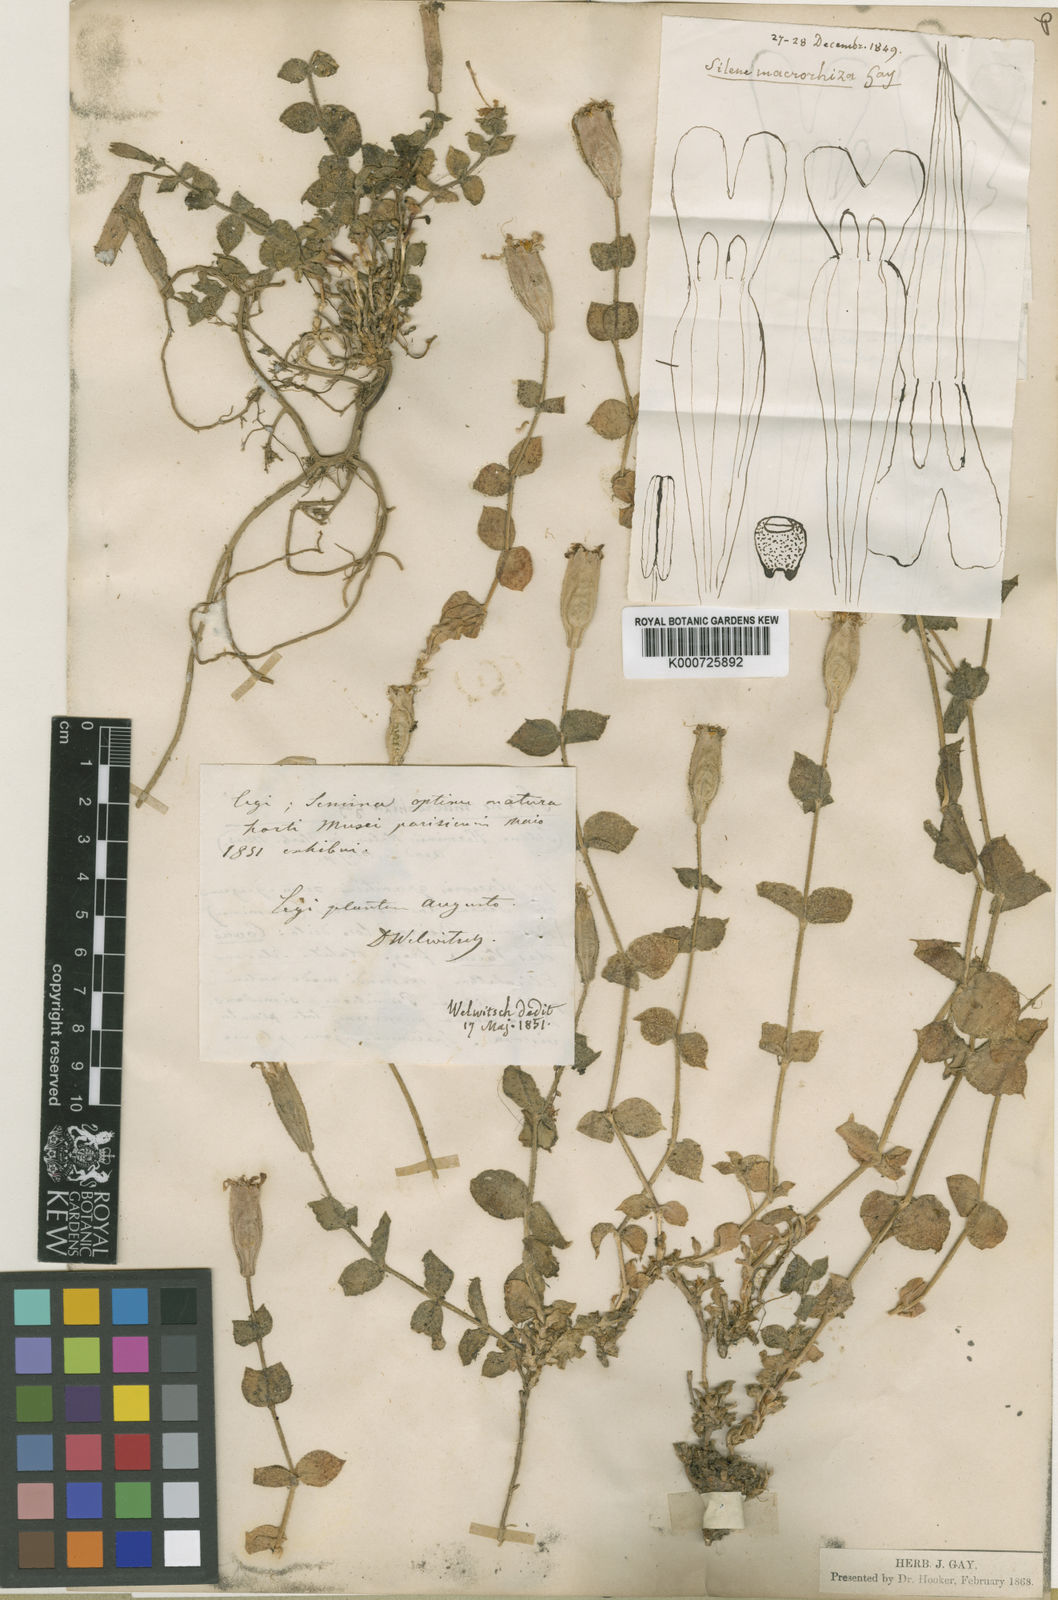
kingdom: Plantae
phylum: Tracheophyta
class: Magnoliopsida
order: Caryophyllales
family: Caryophyllaceae
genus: Silene
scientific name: Silene
